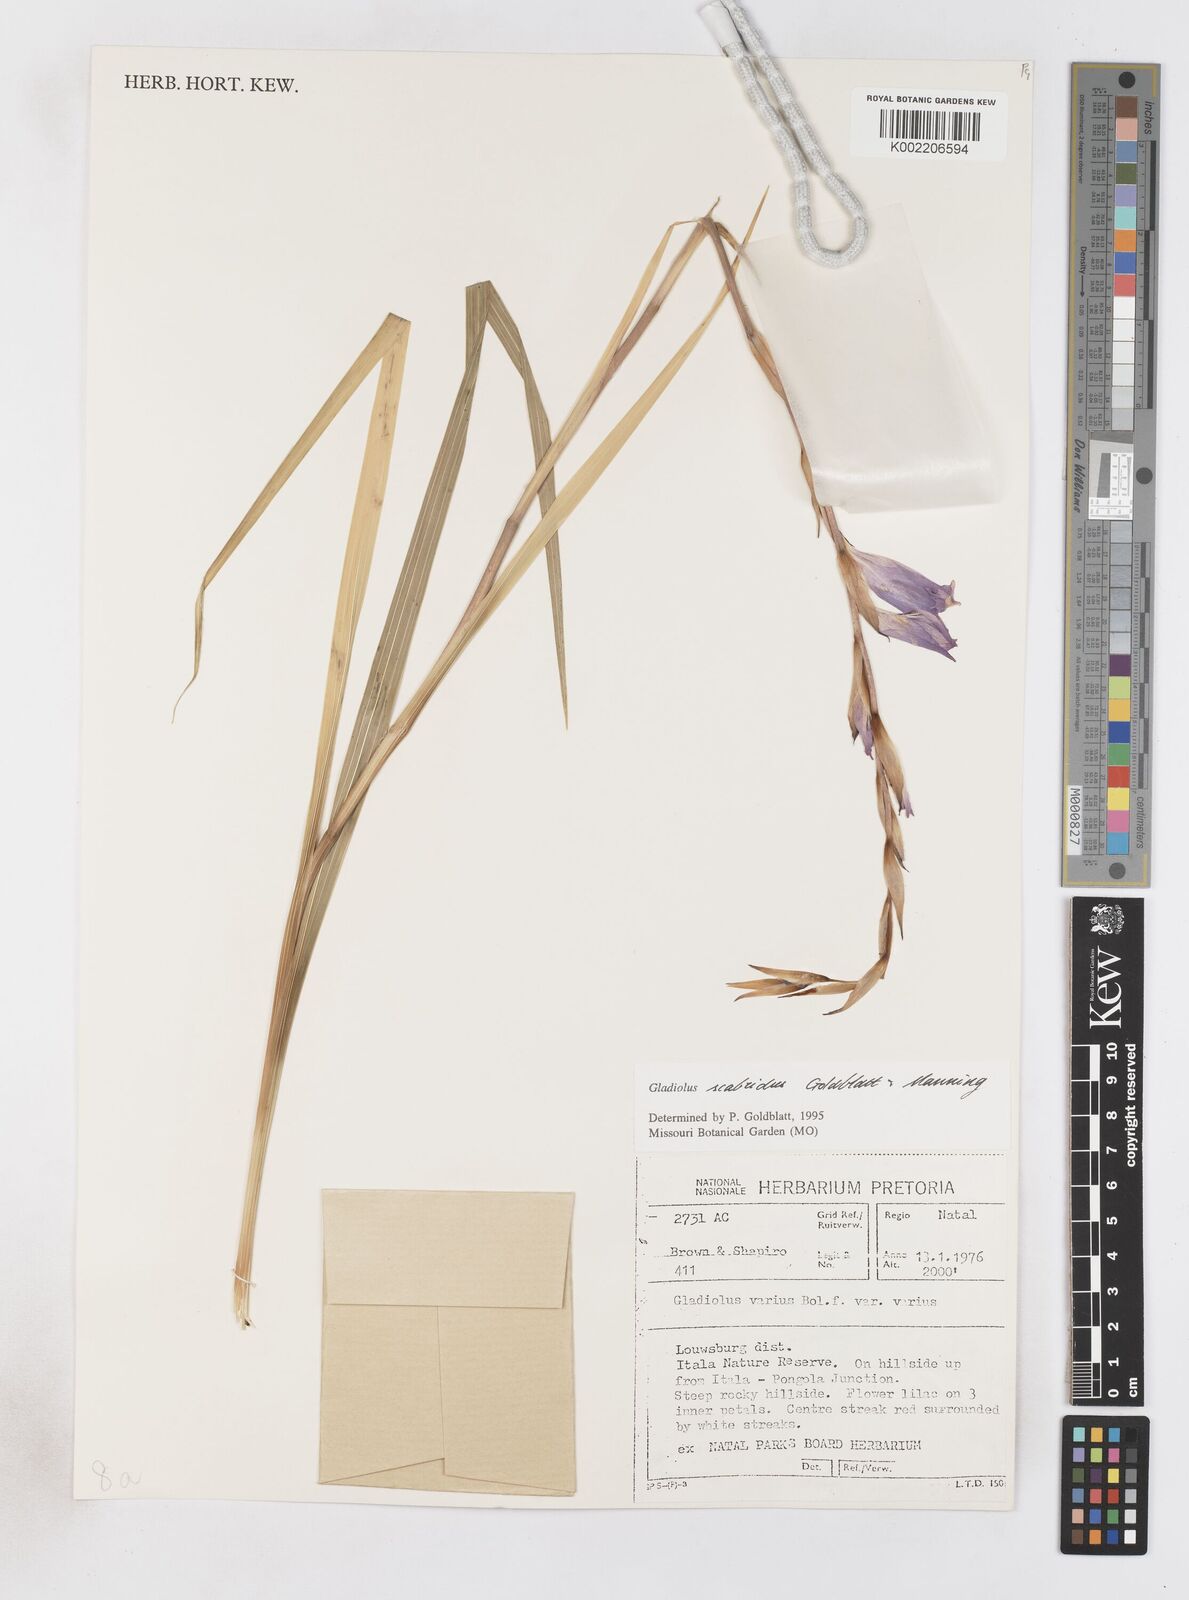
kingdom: Plantae
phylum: Tracheophyta
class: Liliopsida
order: Asparagales
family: Iridaceae
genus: Gladiolus
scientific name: Gladiolus scabridus
